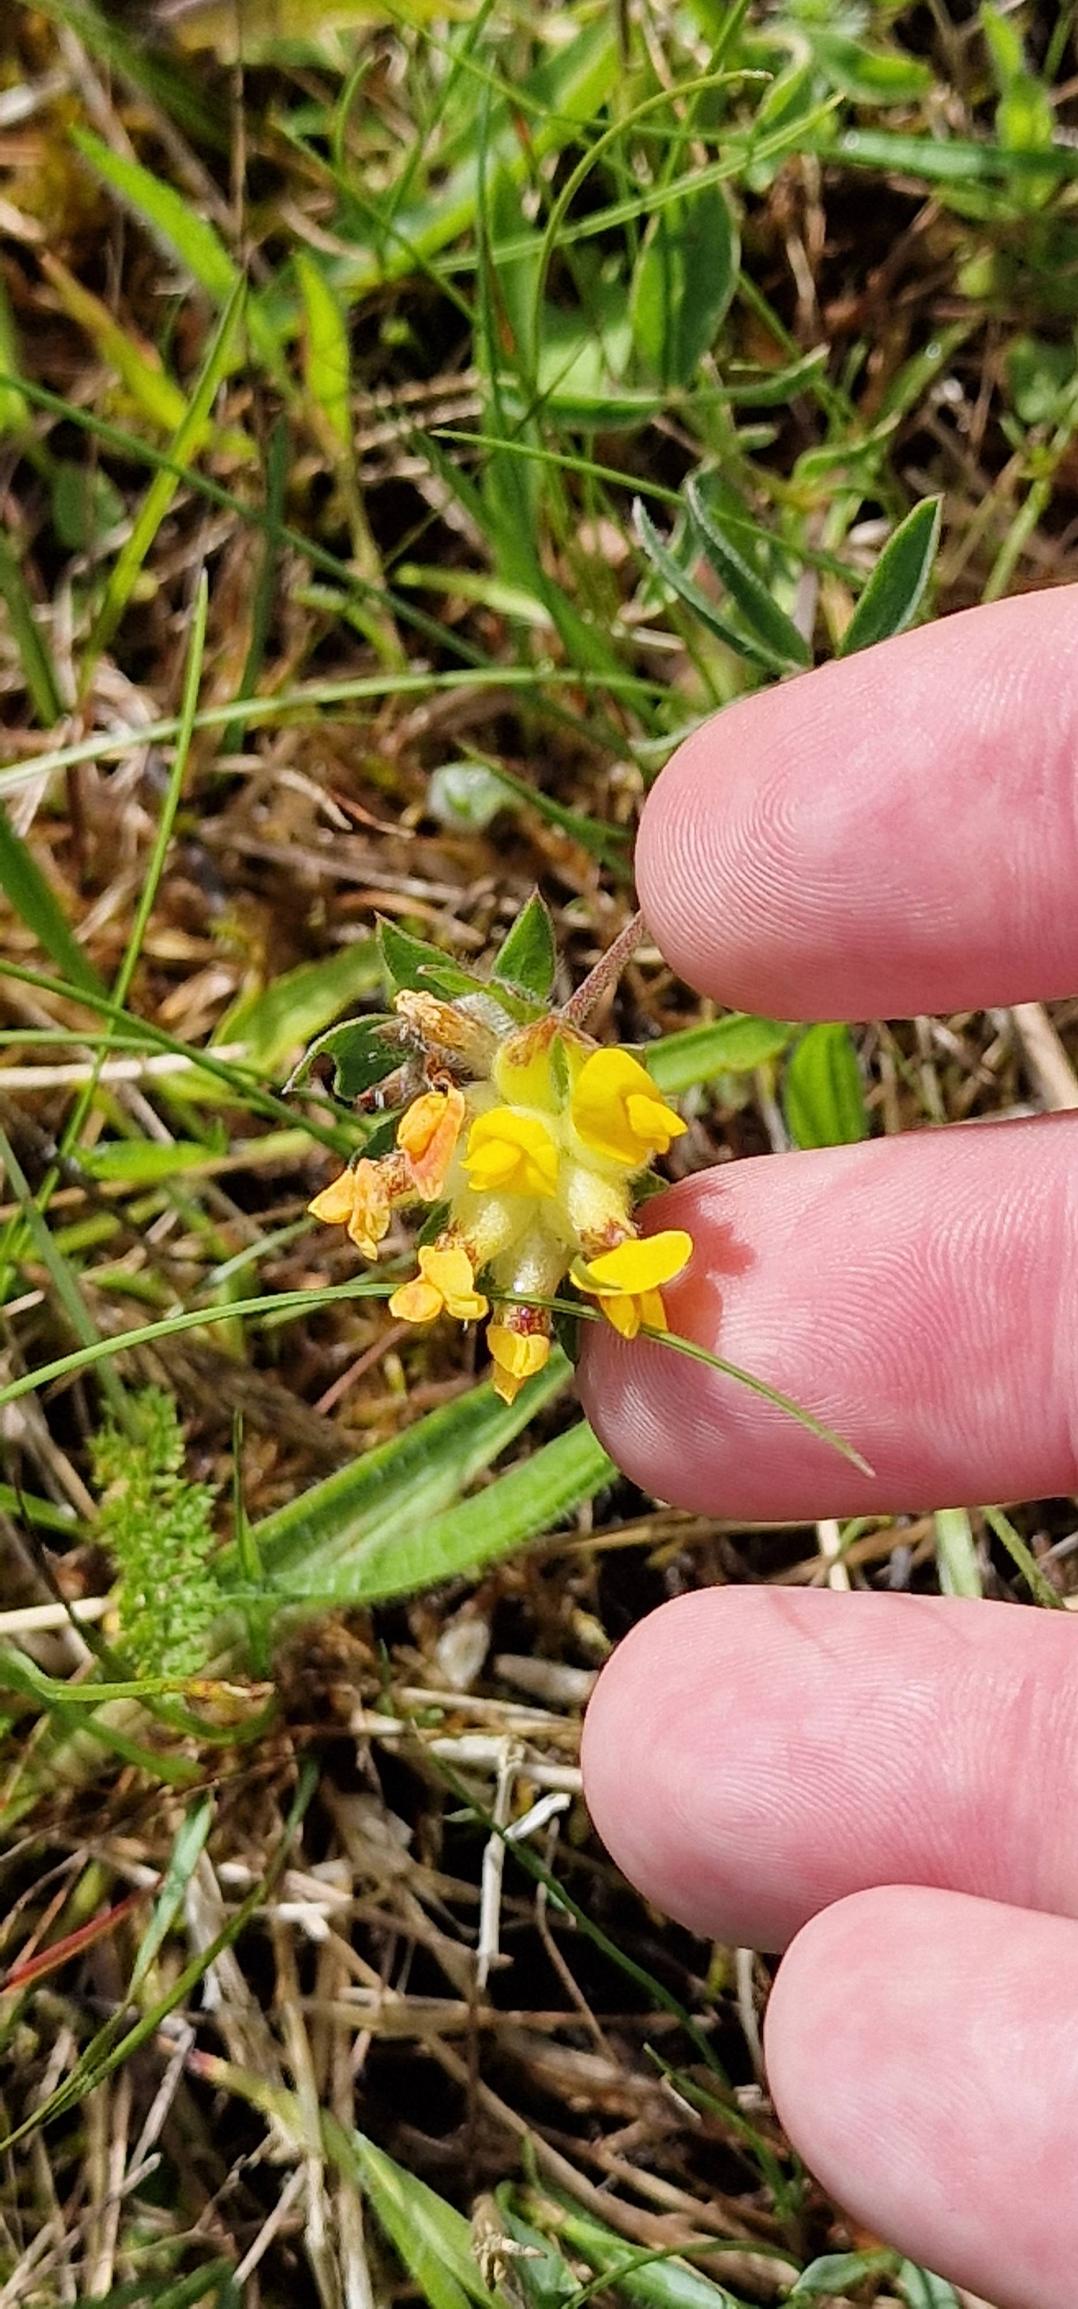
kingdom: Plantae
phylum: Tracheophyta
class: Magnoliopsida
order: Fabales
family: Fabaceae
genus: Anthyllis
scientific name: Anthyllis vulneraria
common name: Rundbælg
